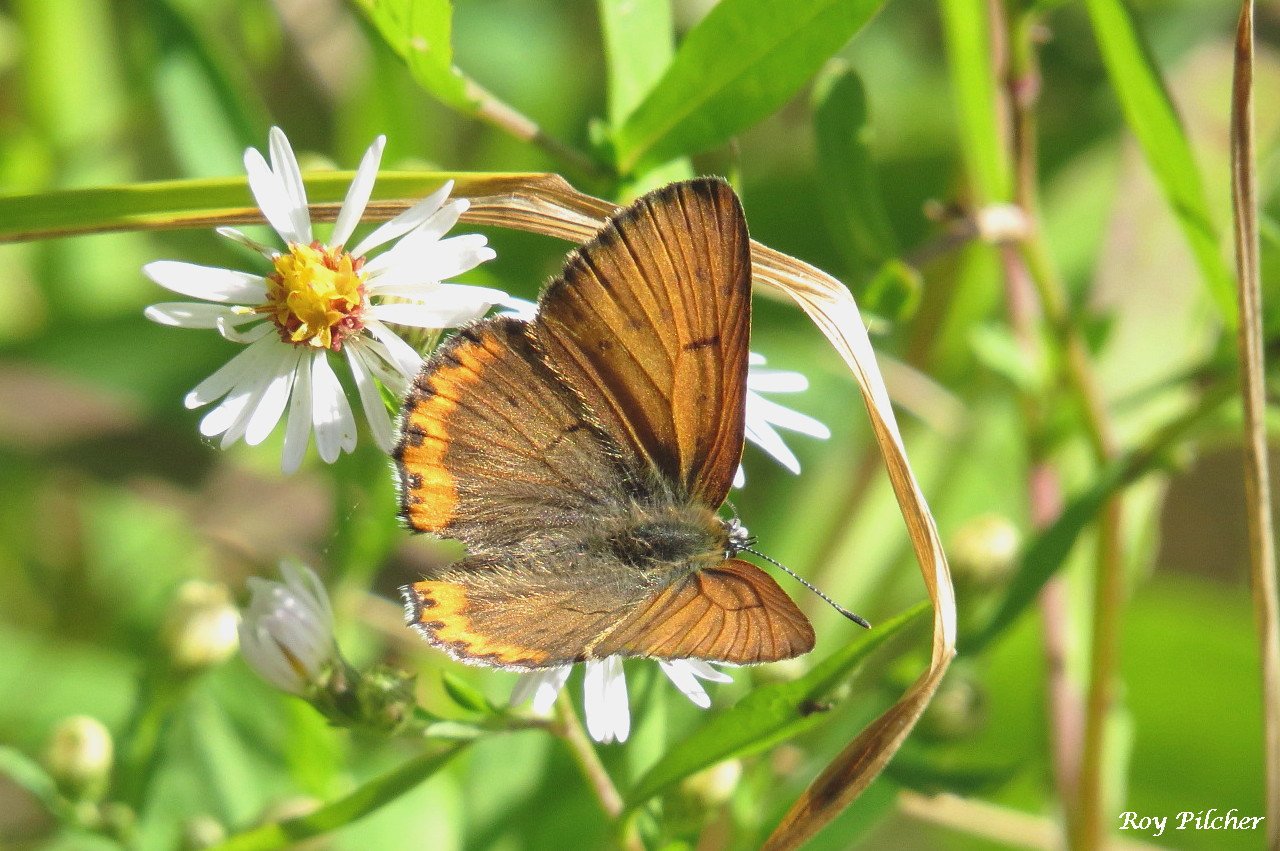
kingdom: Animalia
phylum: Arthropoda
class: Insecta
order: Lepidoptera
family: Sesiidae
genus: Sesia
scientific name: Sesia Lycaena hyllus
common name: Bronze Copper
